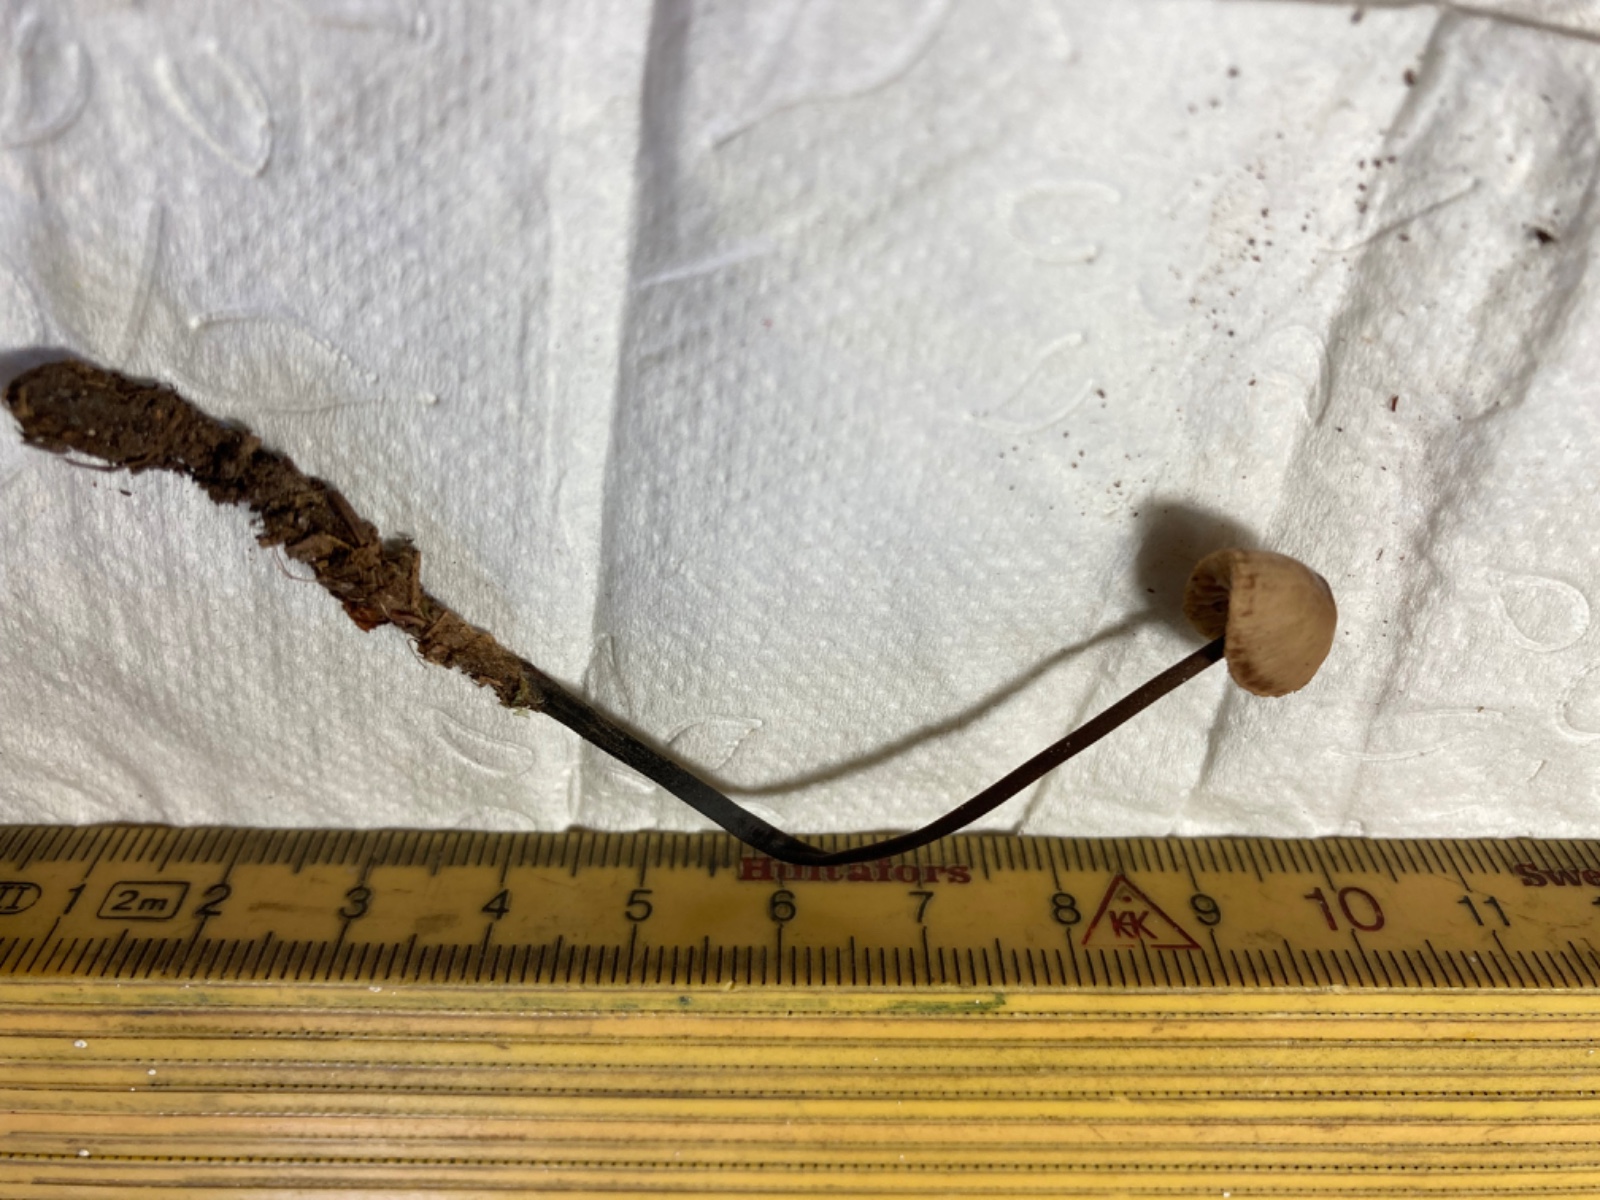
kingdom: Fungi
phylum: Basidiomycota
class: Agaricomycetes
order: Agaricales
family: Omphalotaceae
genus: Mycetinis
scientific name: Mycetinis alliaceus
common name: stor løghat
